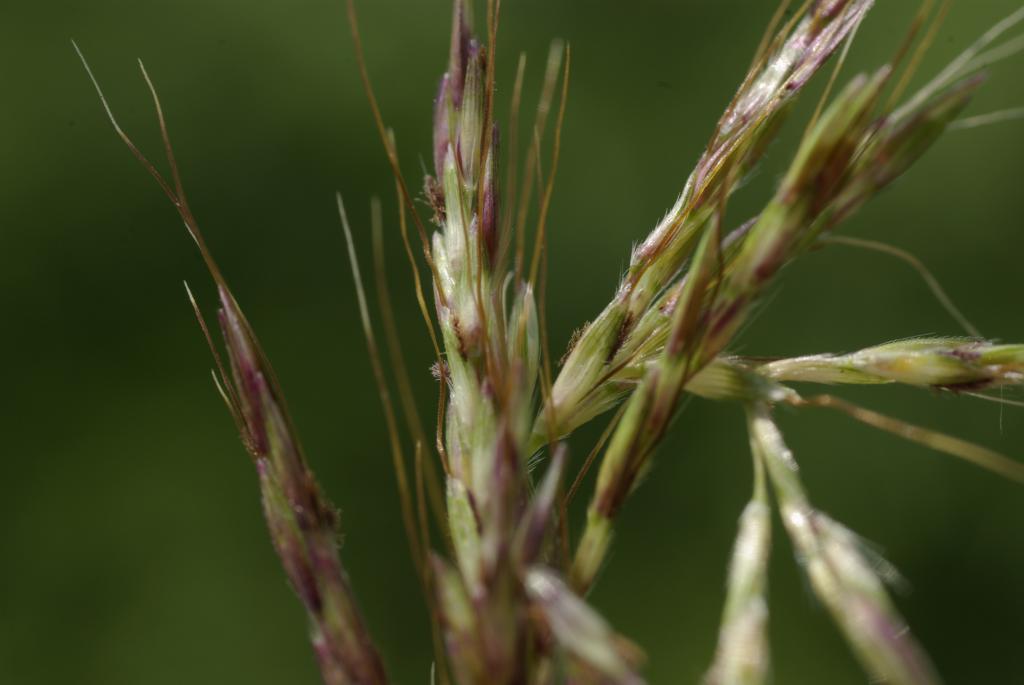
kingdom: Plantae
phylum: Tracheophyta
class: Liliopsida
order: Poales
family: Poaceae
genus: Bothriochloa
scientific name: Bothriochloa bladhii
